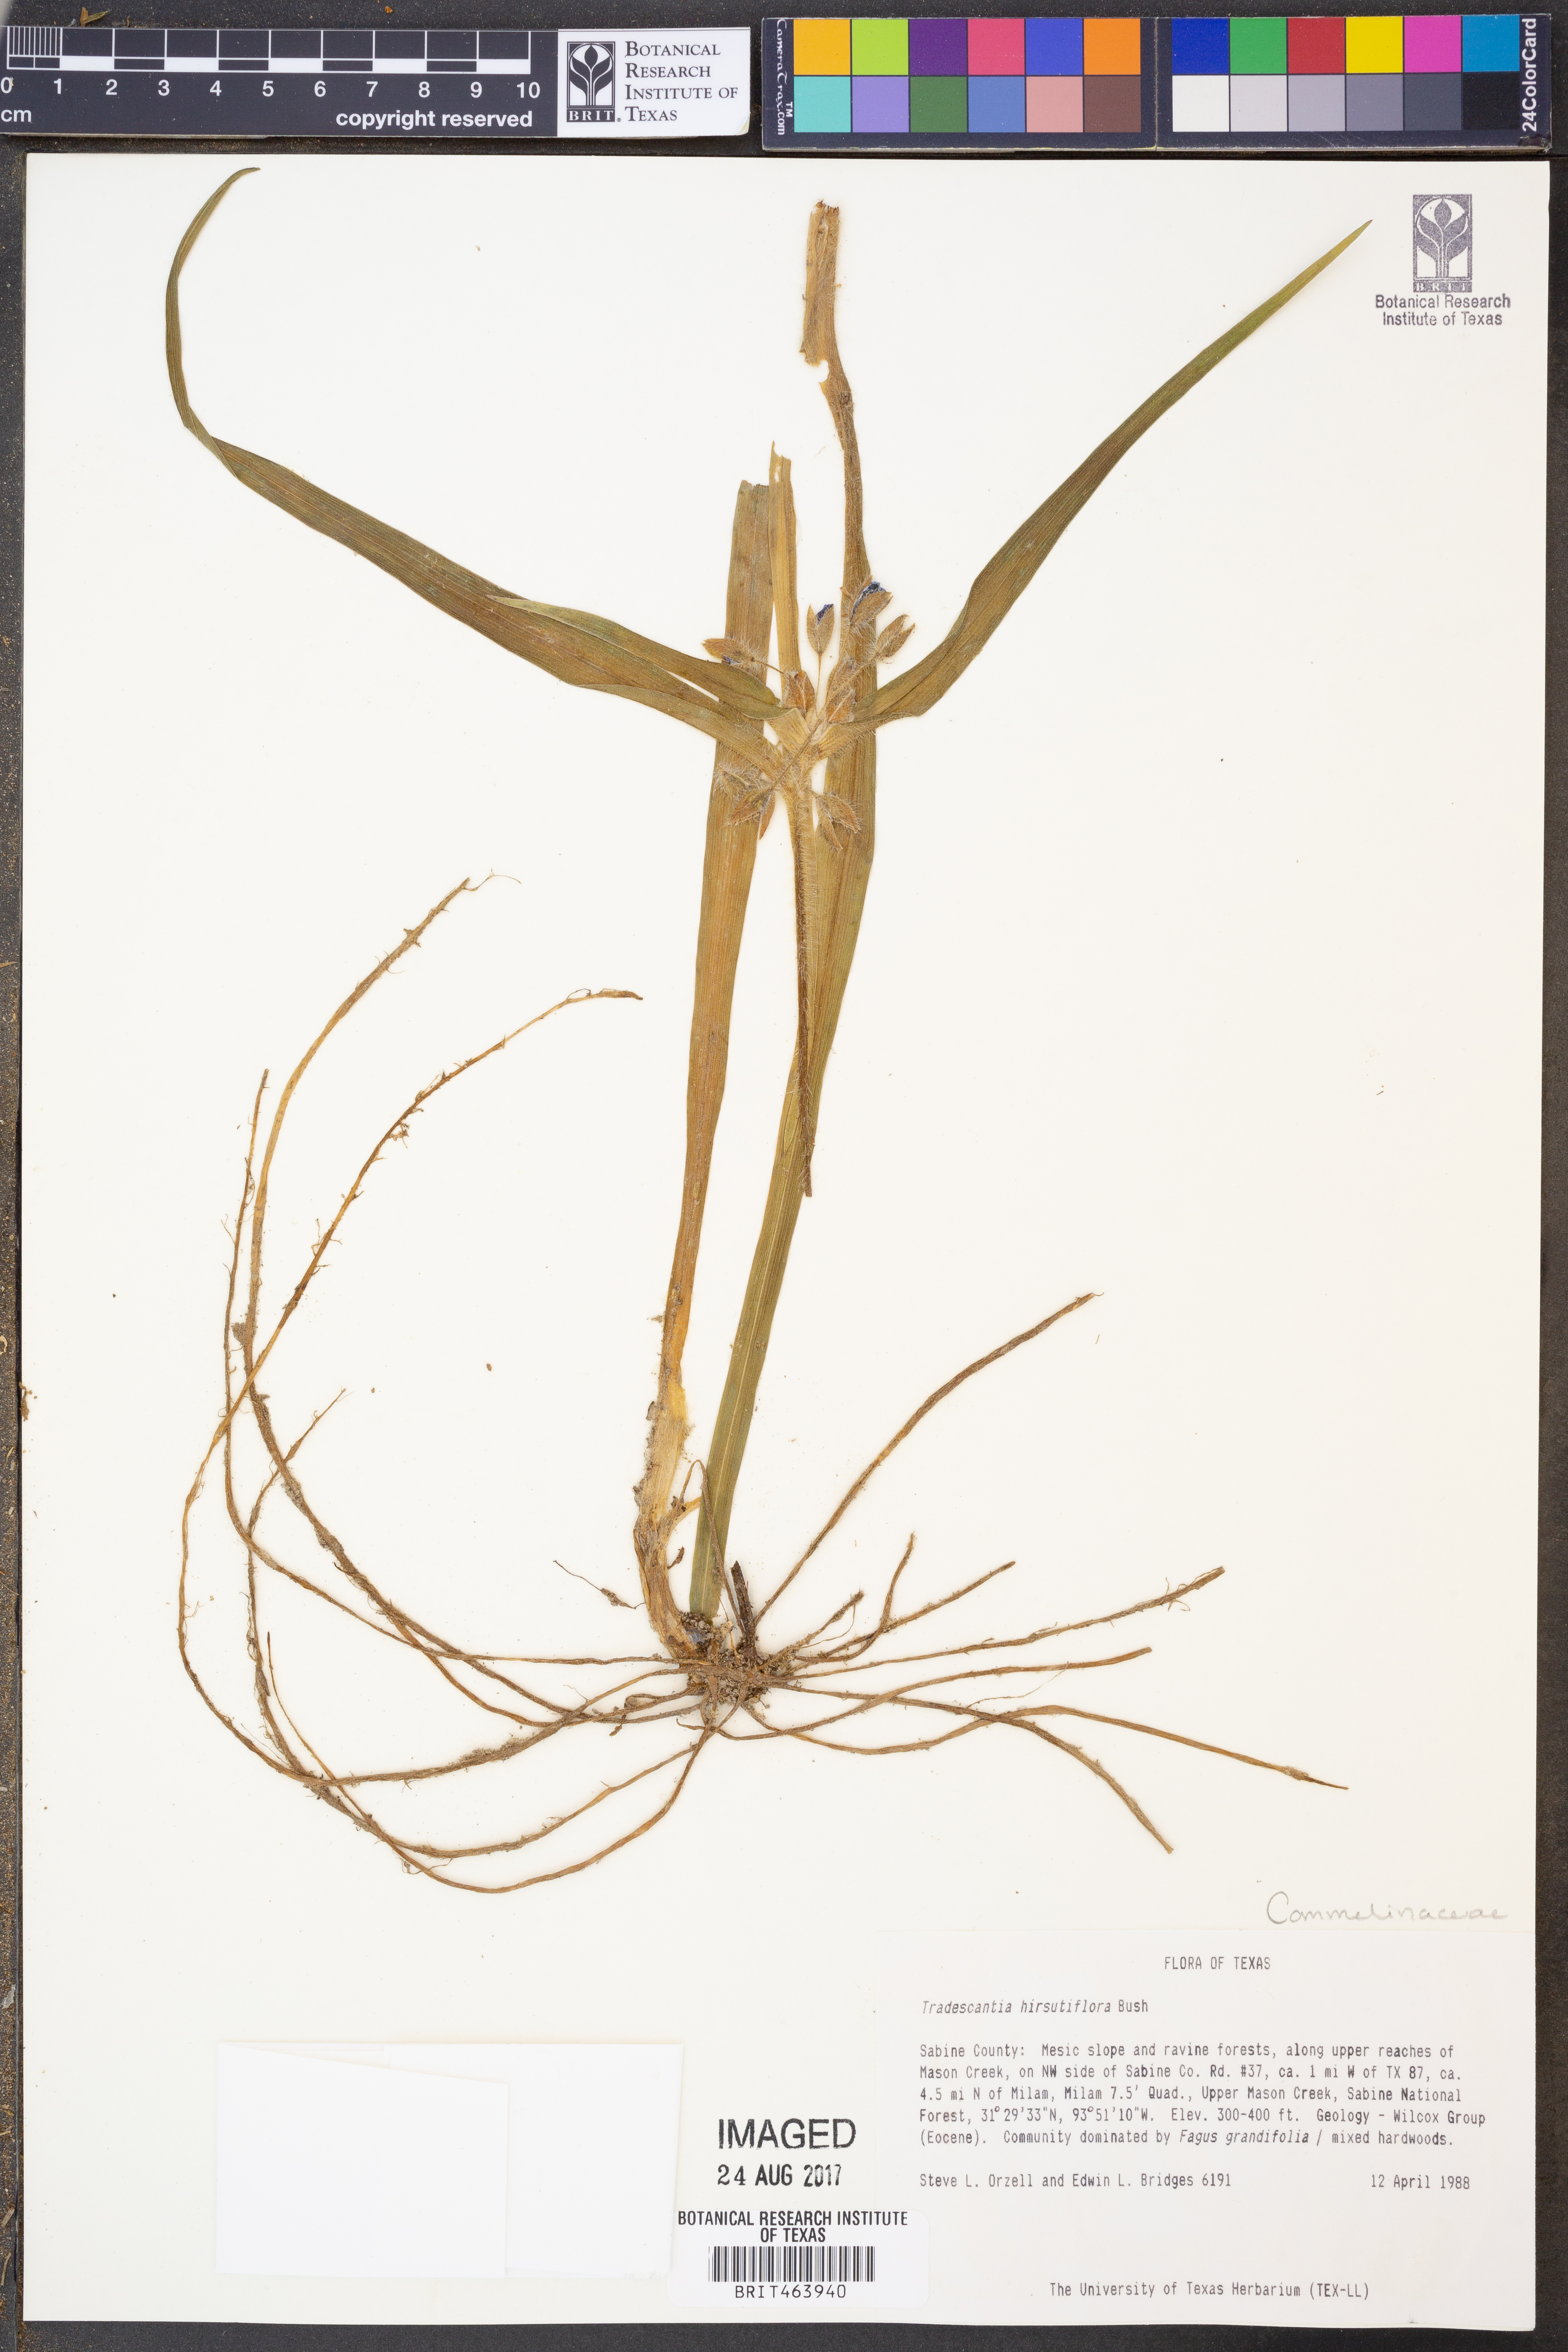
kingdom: Plantae
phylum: Tracheophyta
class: Liliopsida
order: Commelinales
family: Commelinaceae
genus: Tradescantia
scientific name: Tradescantia hirsutiflora
